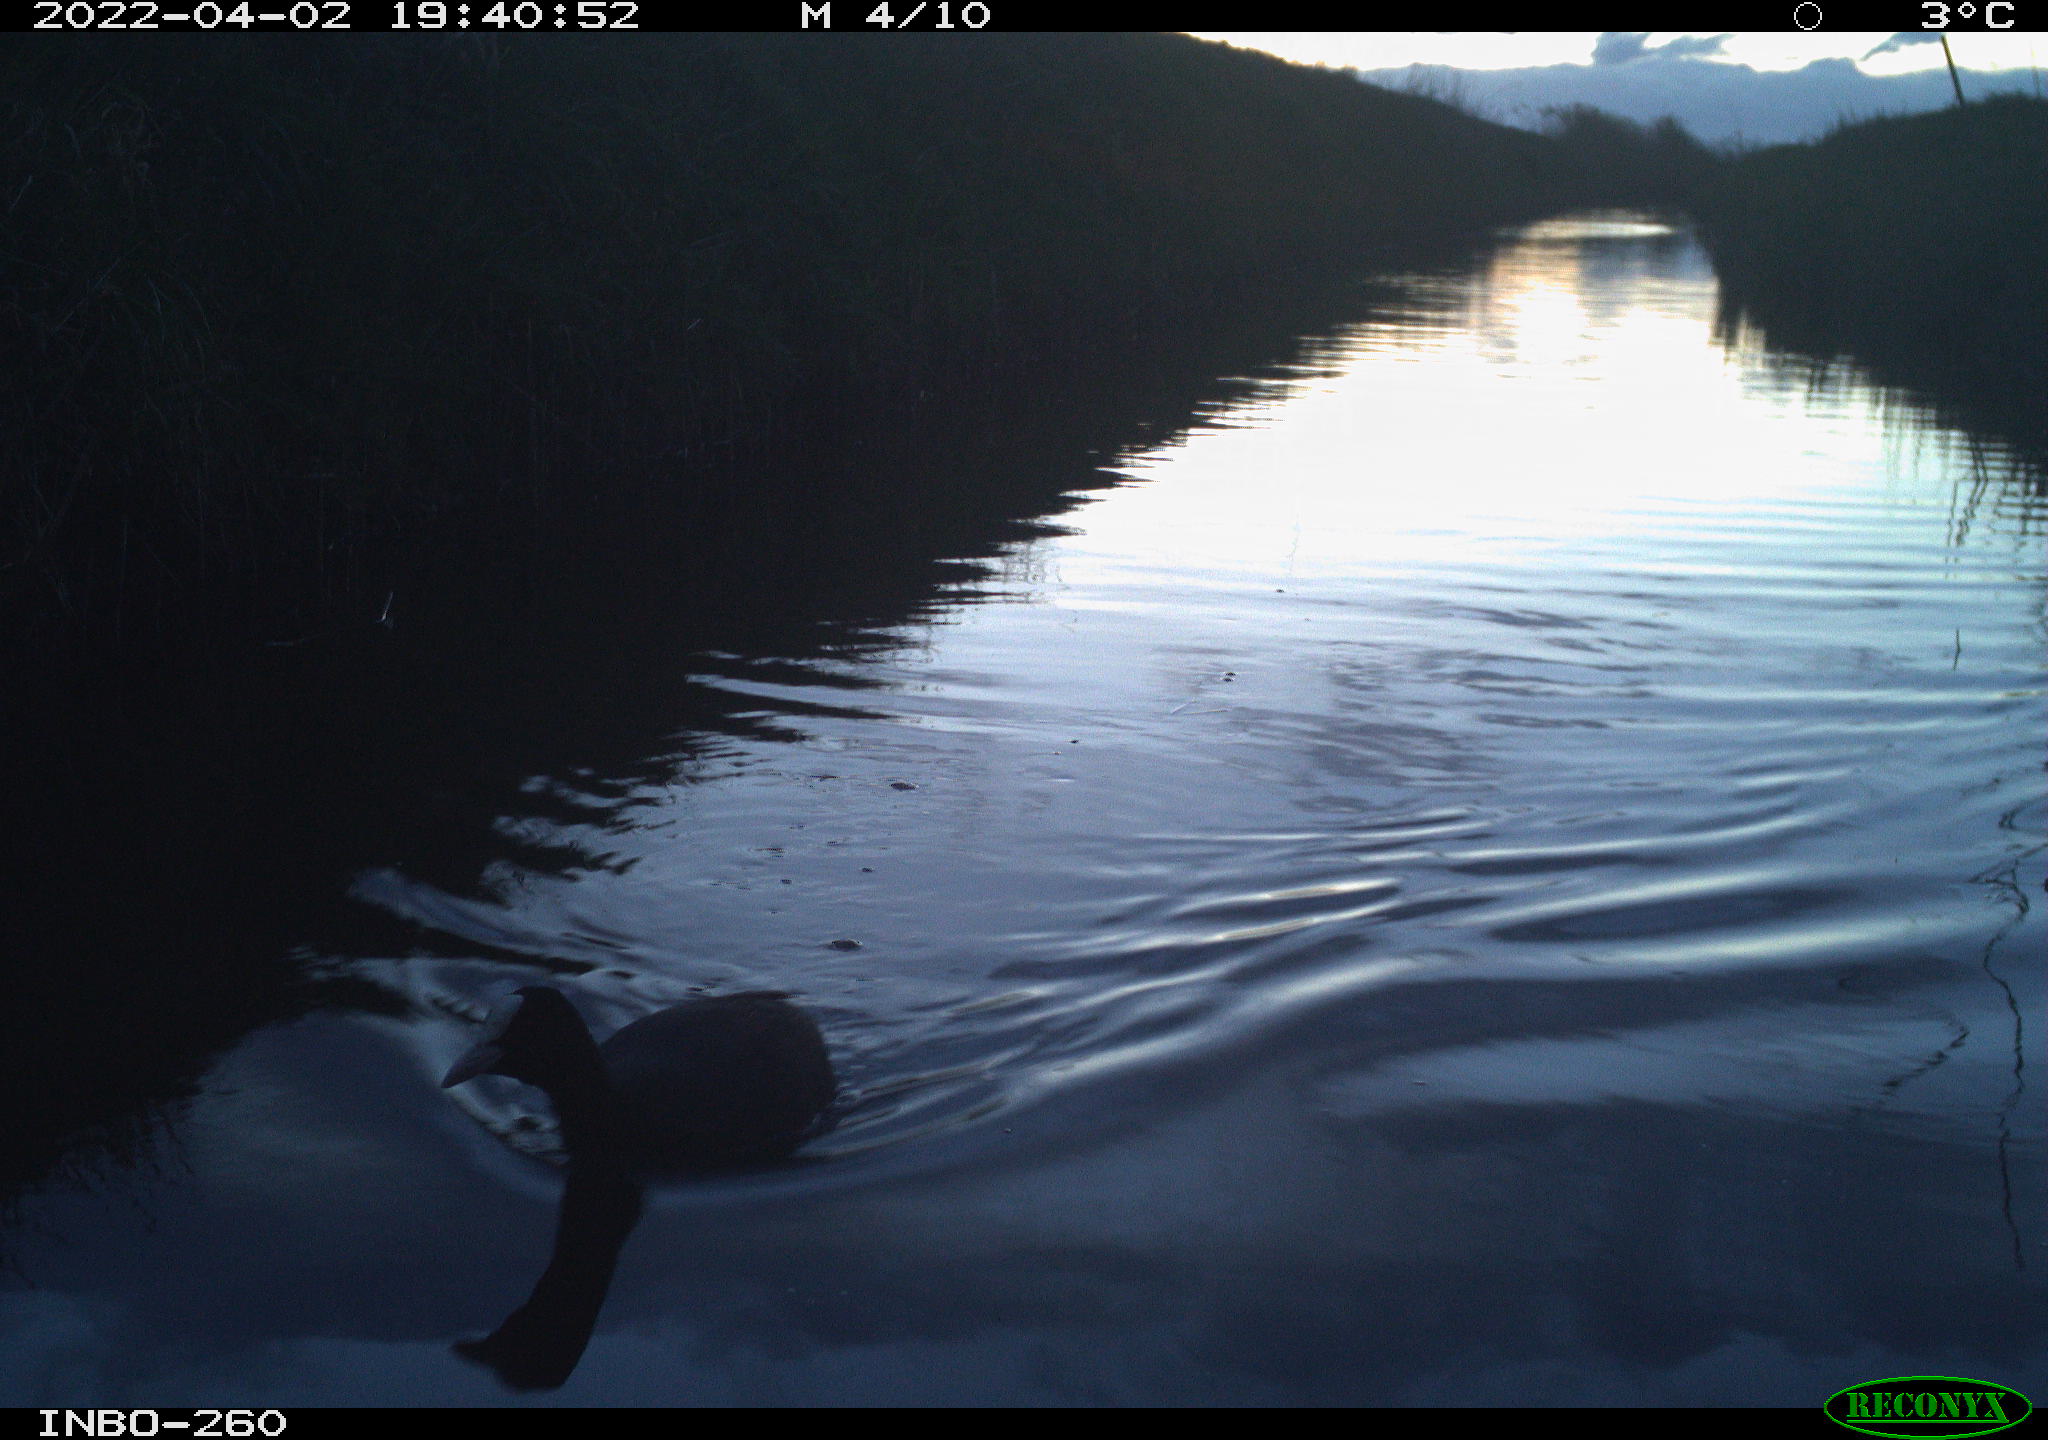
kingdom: Animalia
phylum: Chordata
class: Aves
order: Gruiformes
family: Rallidae
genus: Fulica
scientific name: Fulica atra
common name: Eurasian coot
